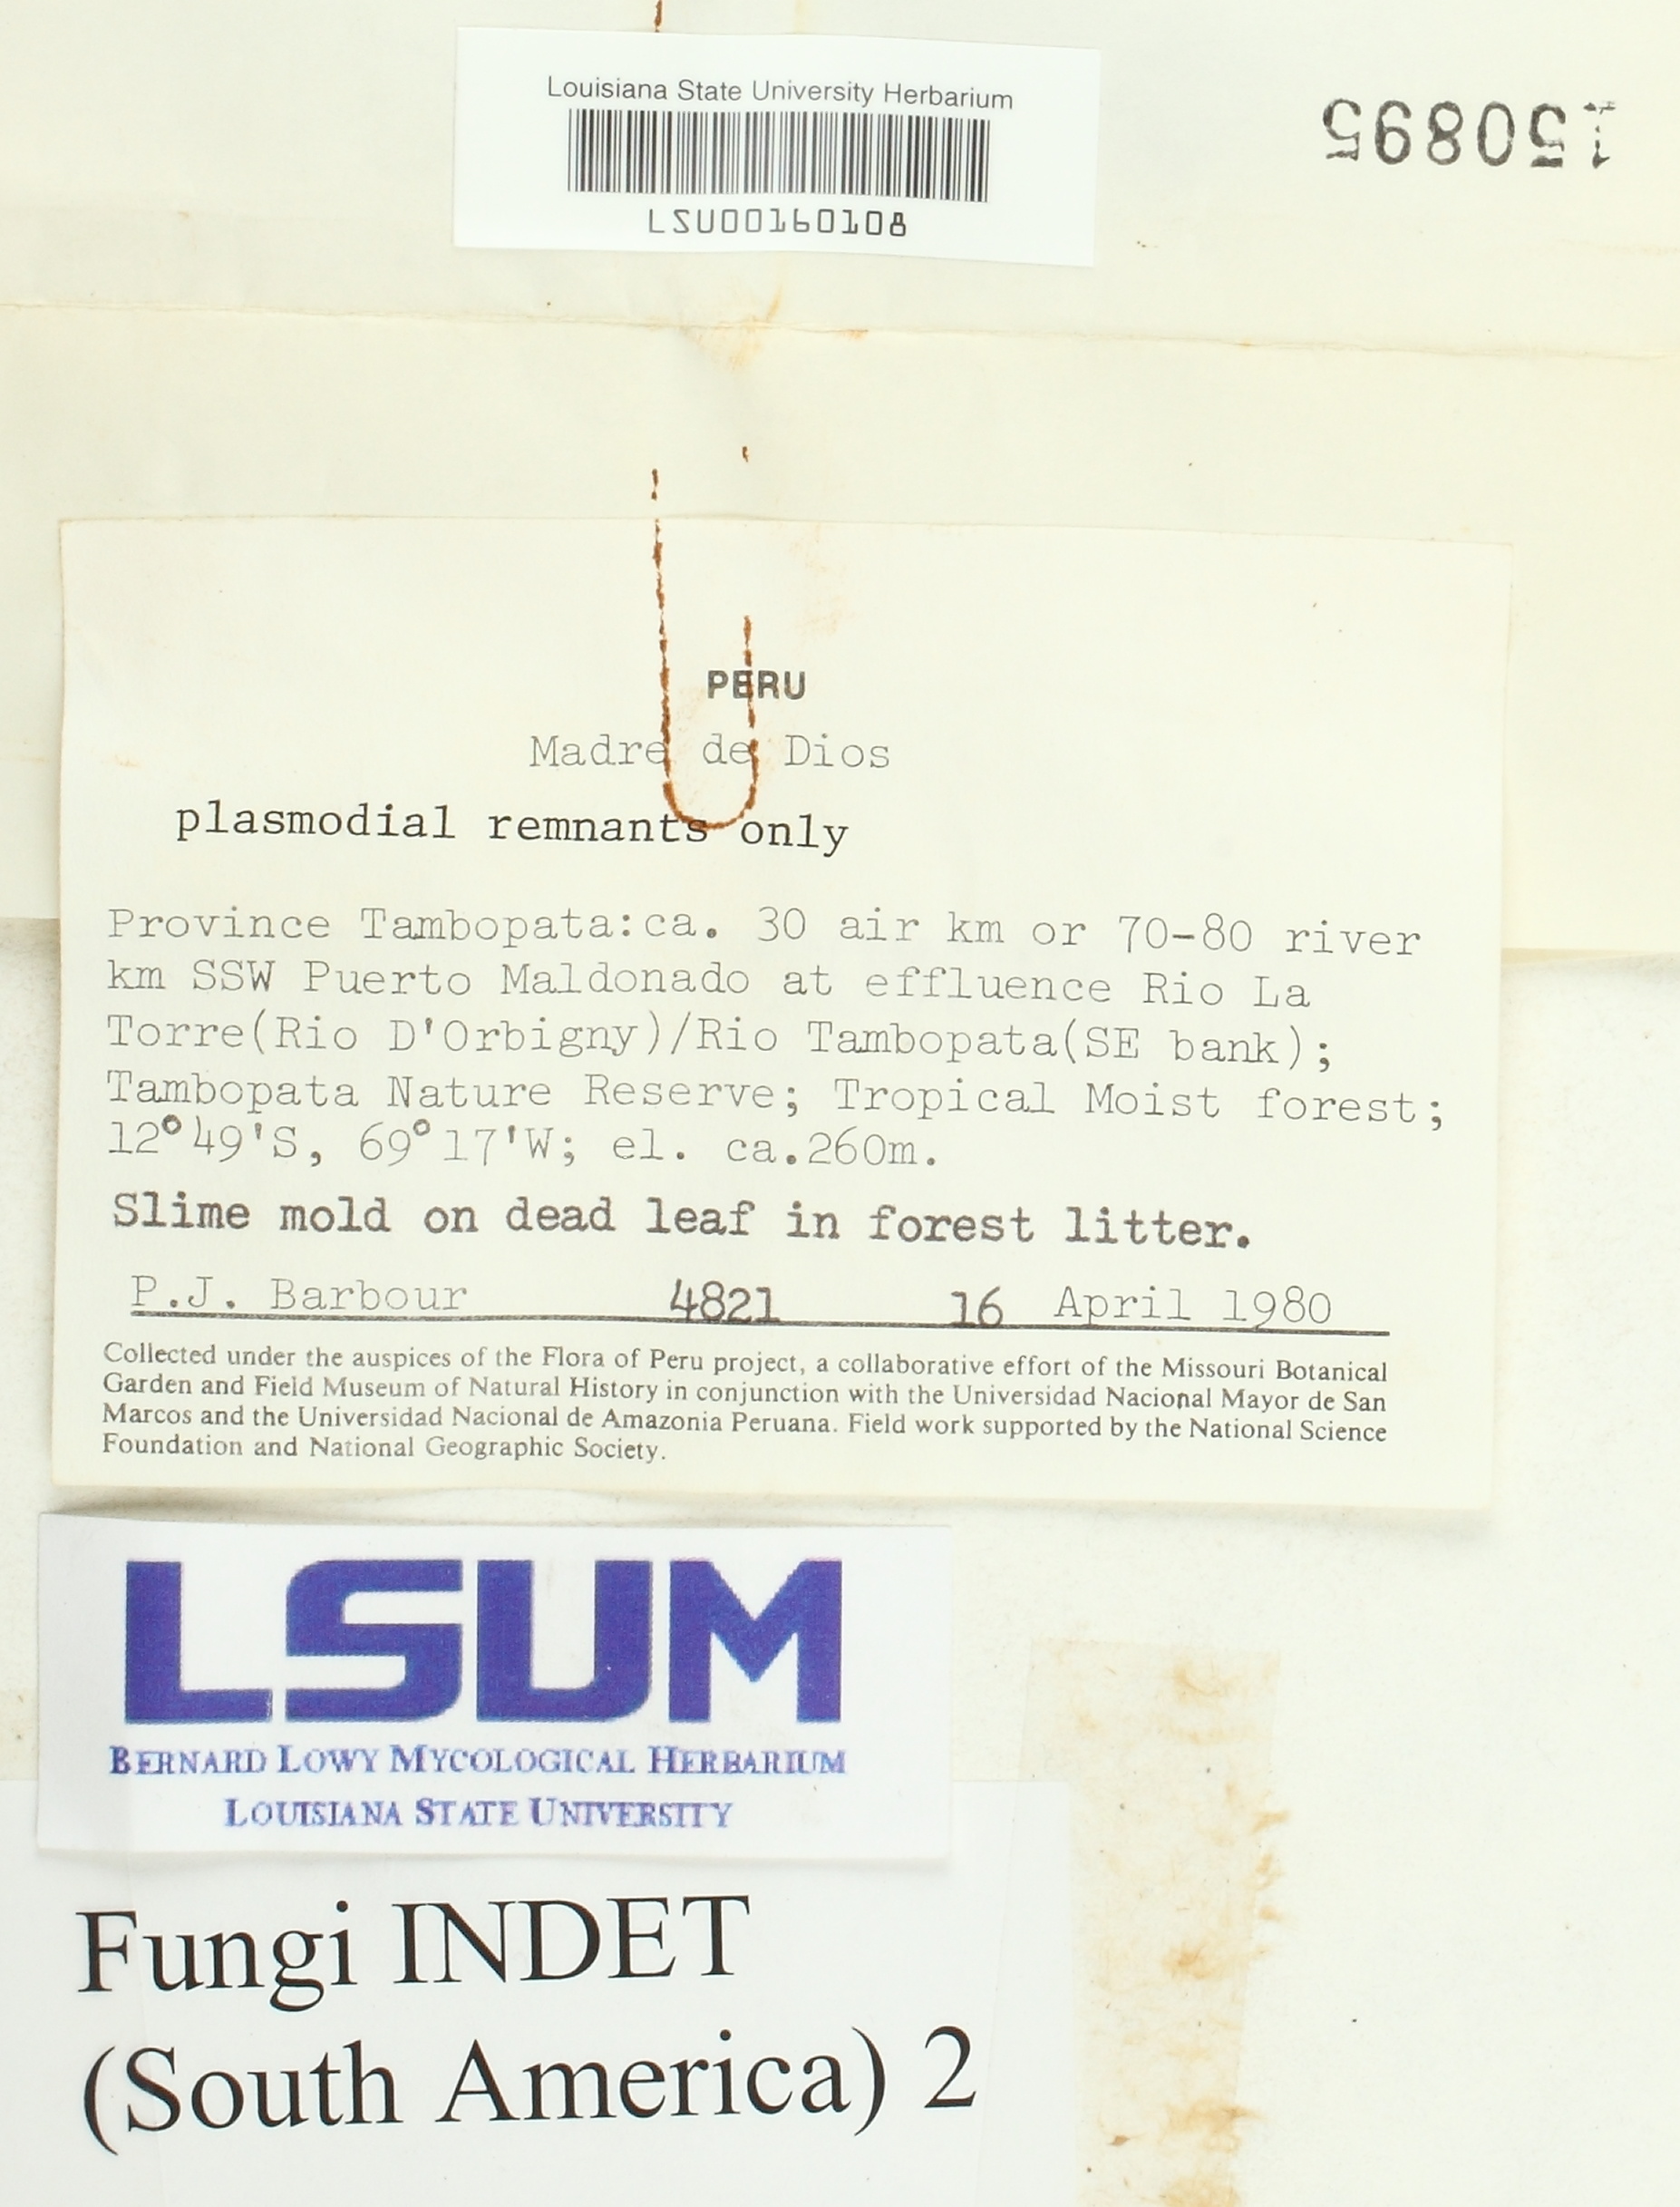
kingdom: Fungi
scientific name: Fungi
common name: Fungi
